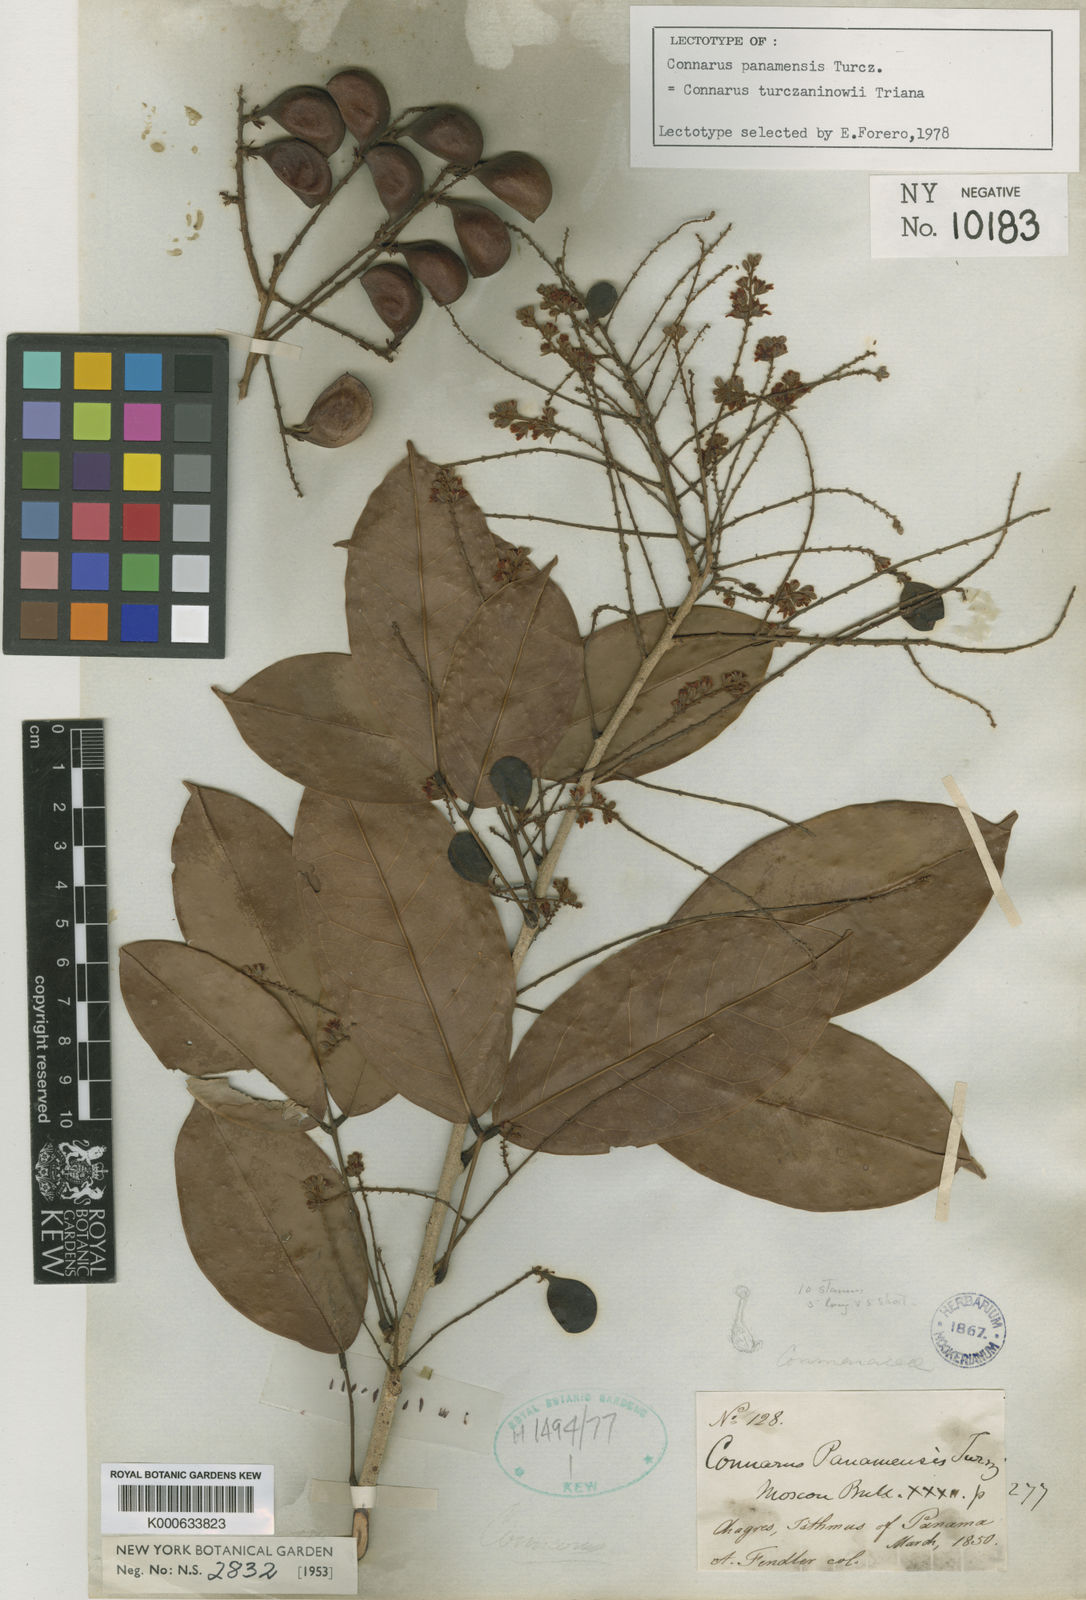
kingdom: Plantae
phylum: Tracheophyta
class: Magnoliopsida
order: Oxalidales
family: Connaraceae
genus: Connarus
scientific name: Connarus turczaninowii
